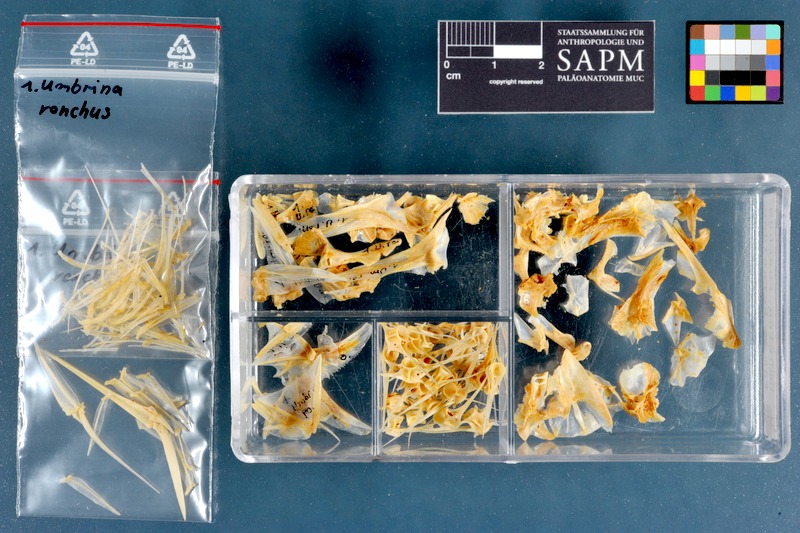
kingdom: Animalia
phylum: Chordata
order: Perciformes
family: Sciaenidae
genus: Umbrina
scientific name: Umbrina ronchus
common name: Slender baardman
